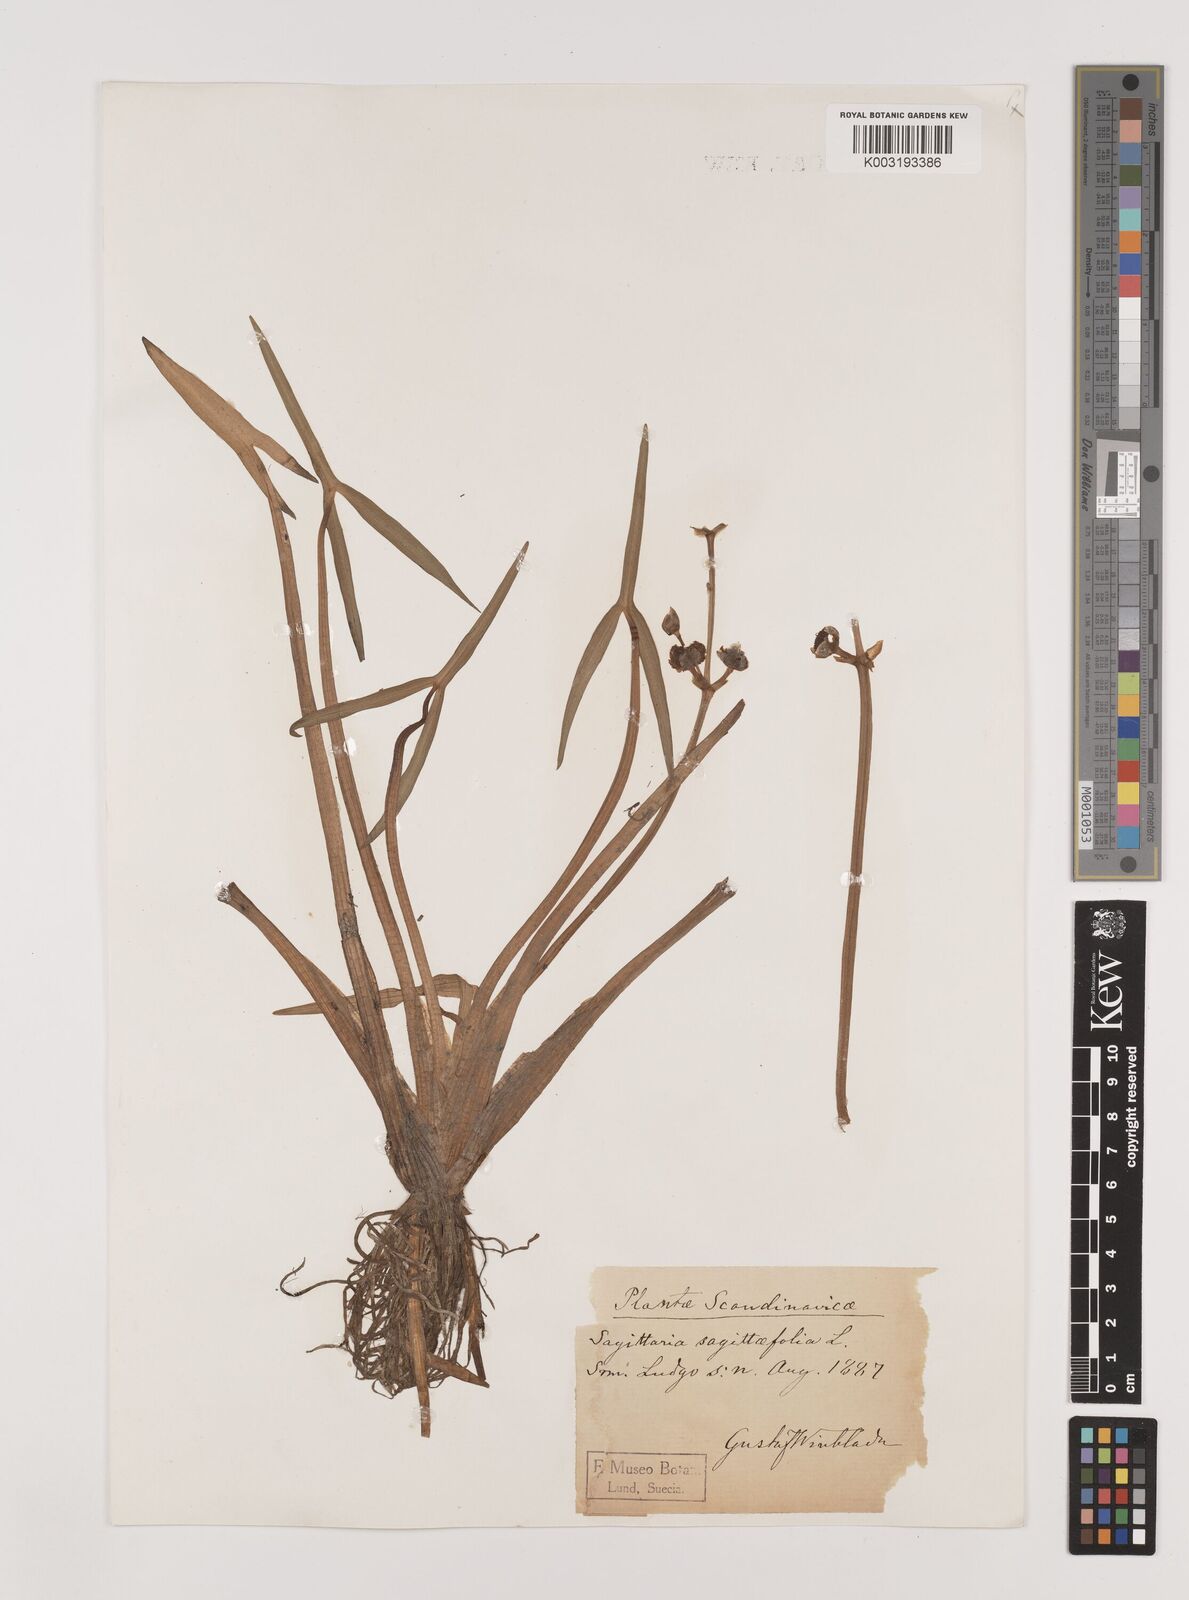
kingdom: Plantae
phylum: Tracheophyta
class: Liliopsida
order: Alismatales
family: Alismataceae
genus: Sagittaria
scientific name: Sagittaria sagittifolia
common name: Arrowhead
